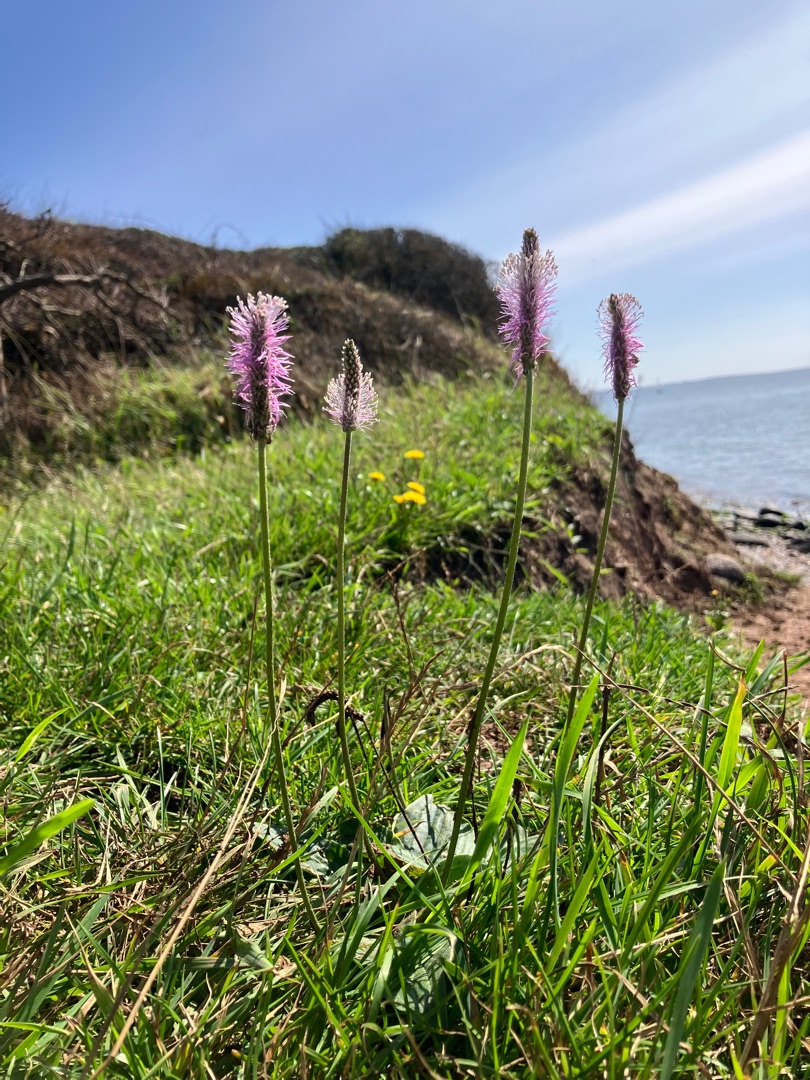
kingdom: Plantae
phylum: Tracheophyta
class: Magnoliopsida
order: Lamiales
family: Plantaginaceae
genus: Plantago
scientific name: Plantago media
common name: Dunet vejbred
